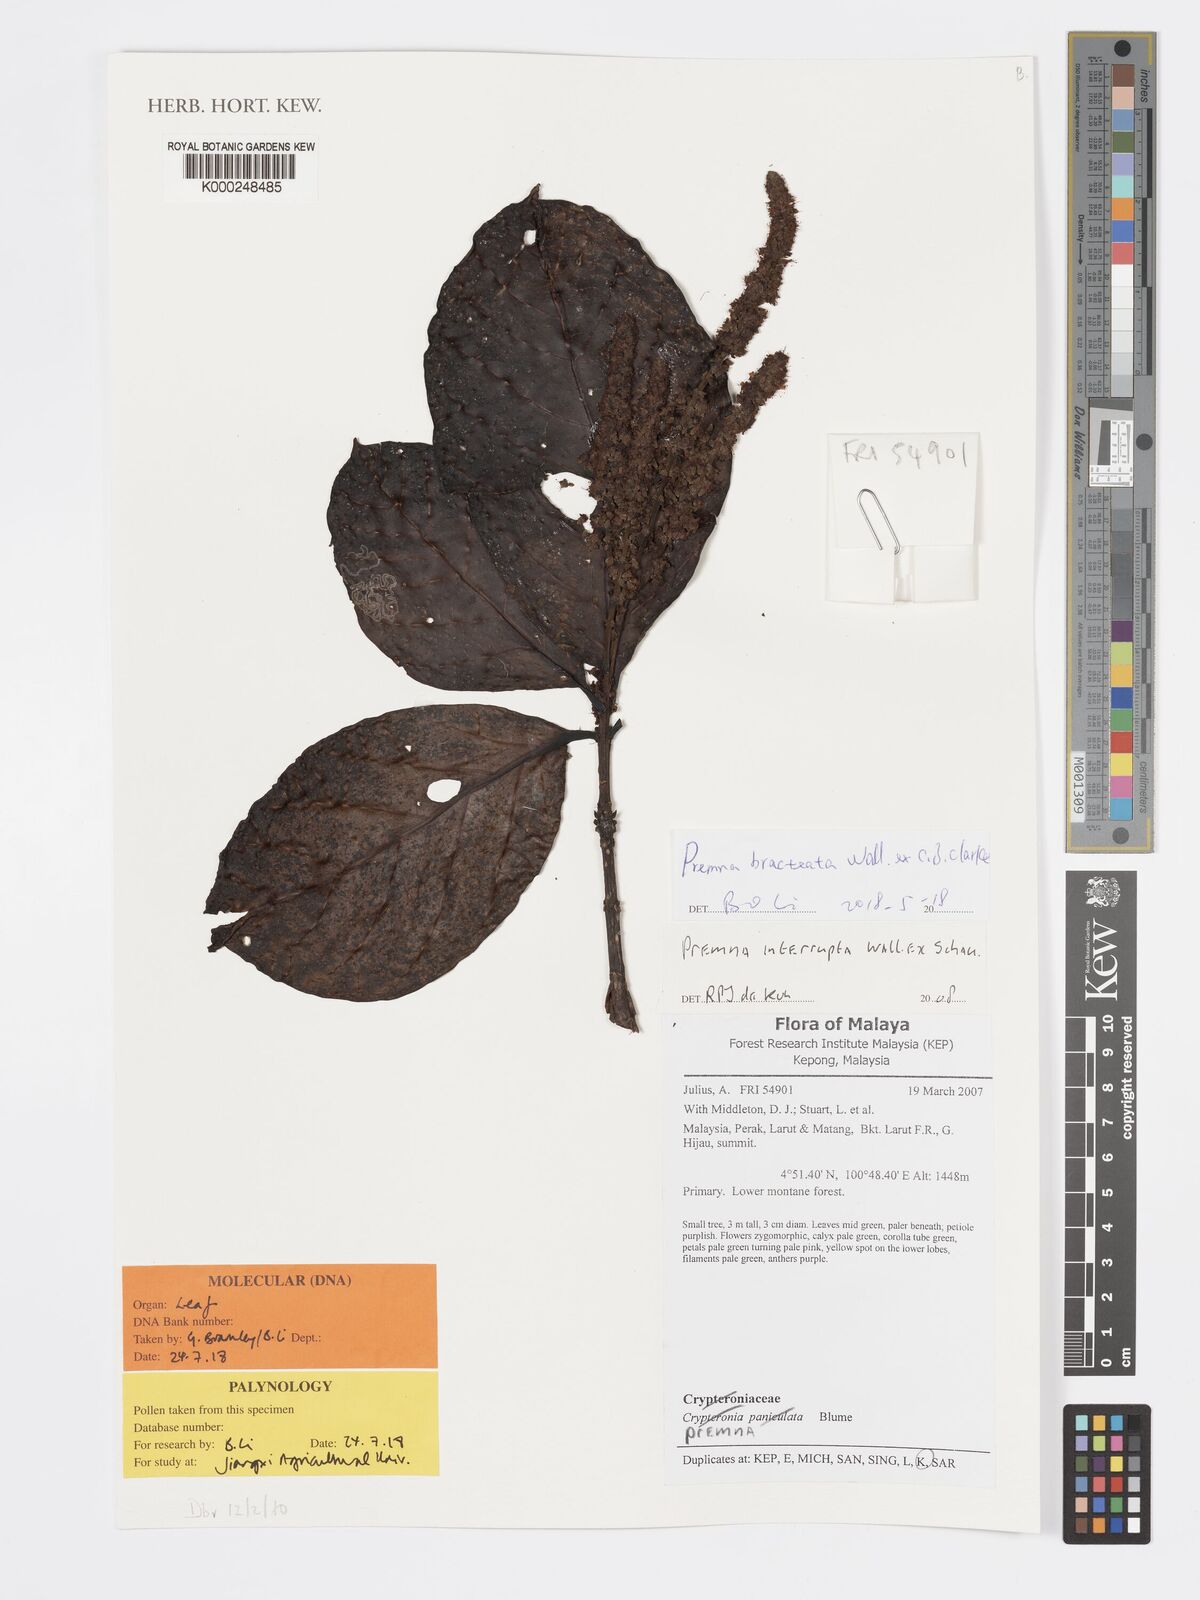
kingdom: Plantae
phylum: Tracheophyta
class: Magnoliopsida
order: Lamiales
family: Lamiaceae
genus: Premna
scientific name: Premna interrupta
